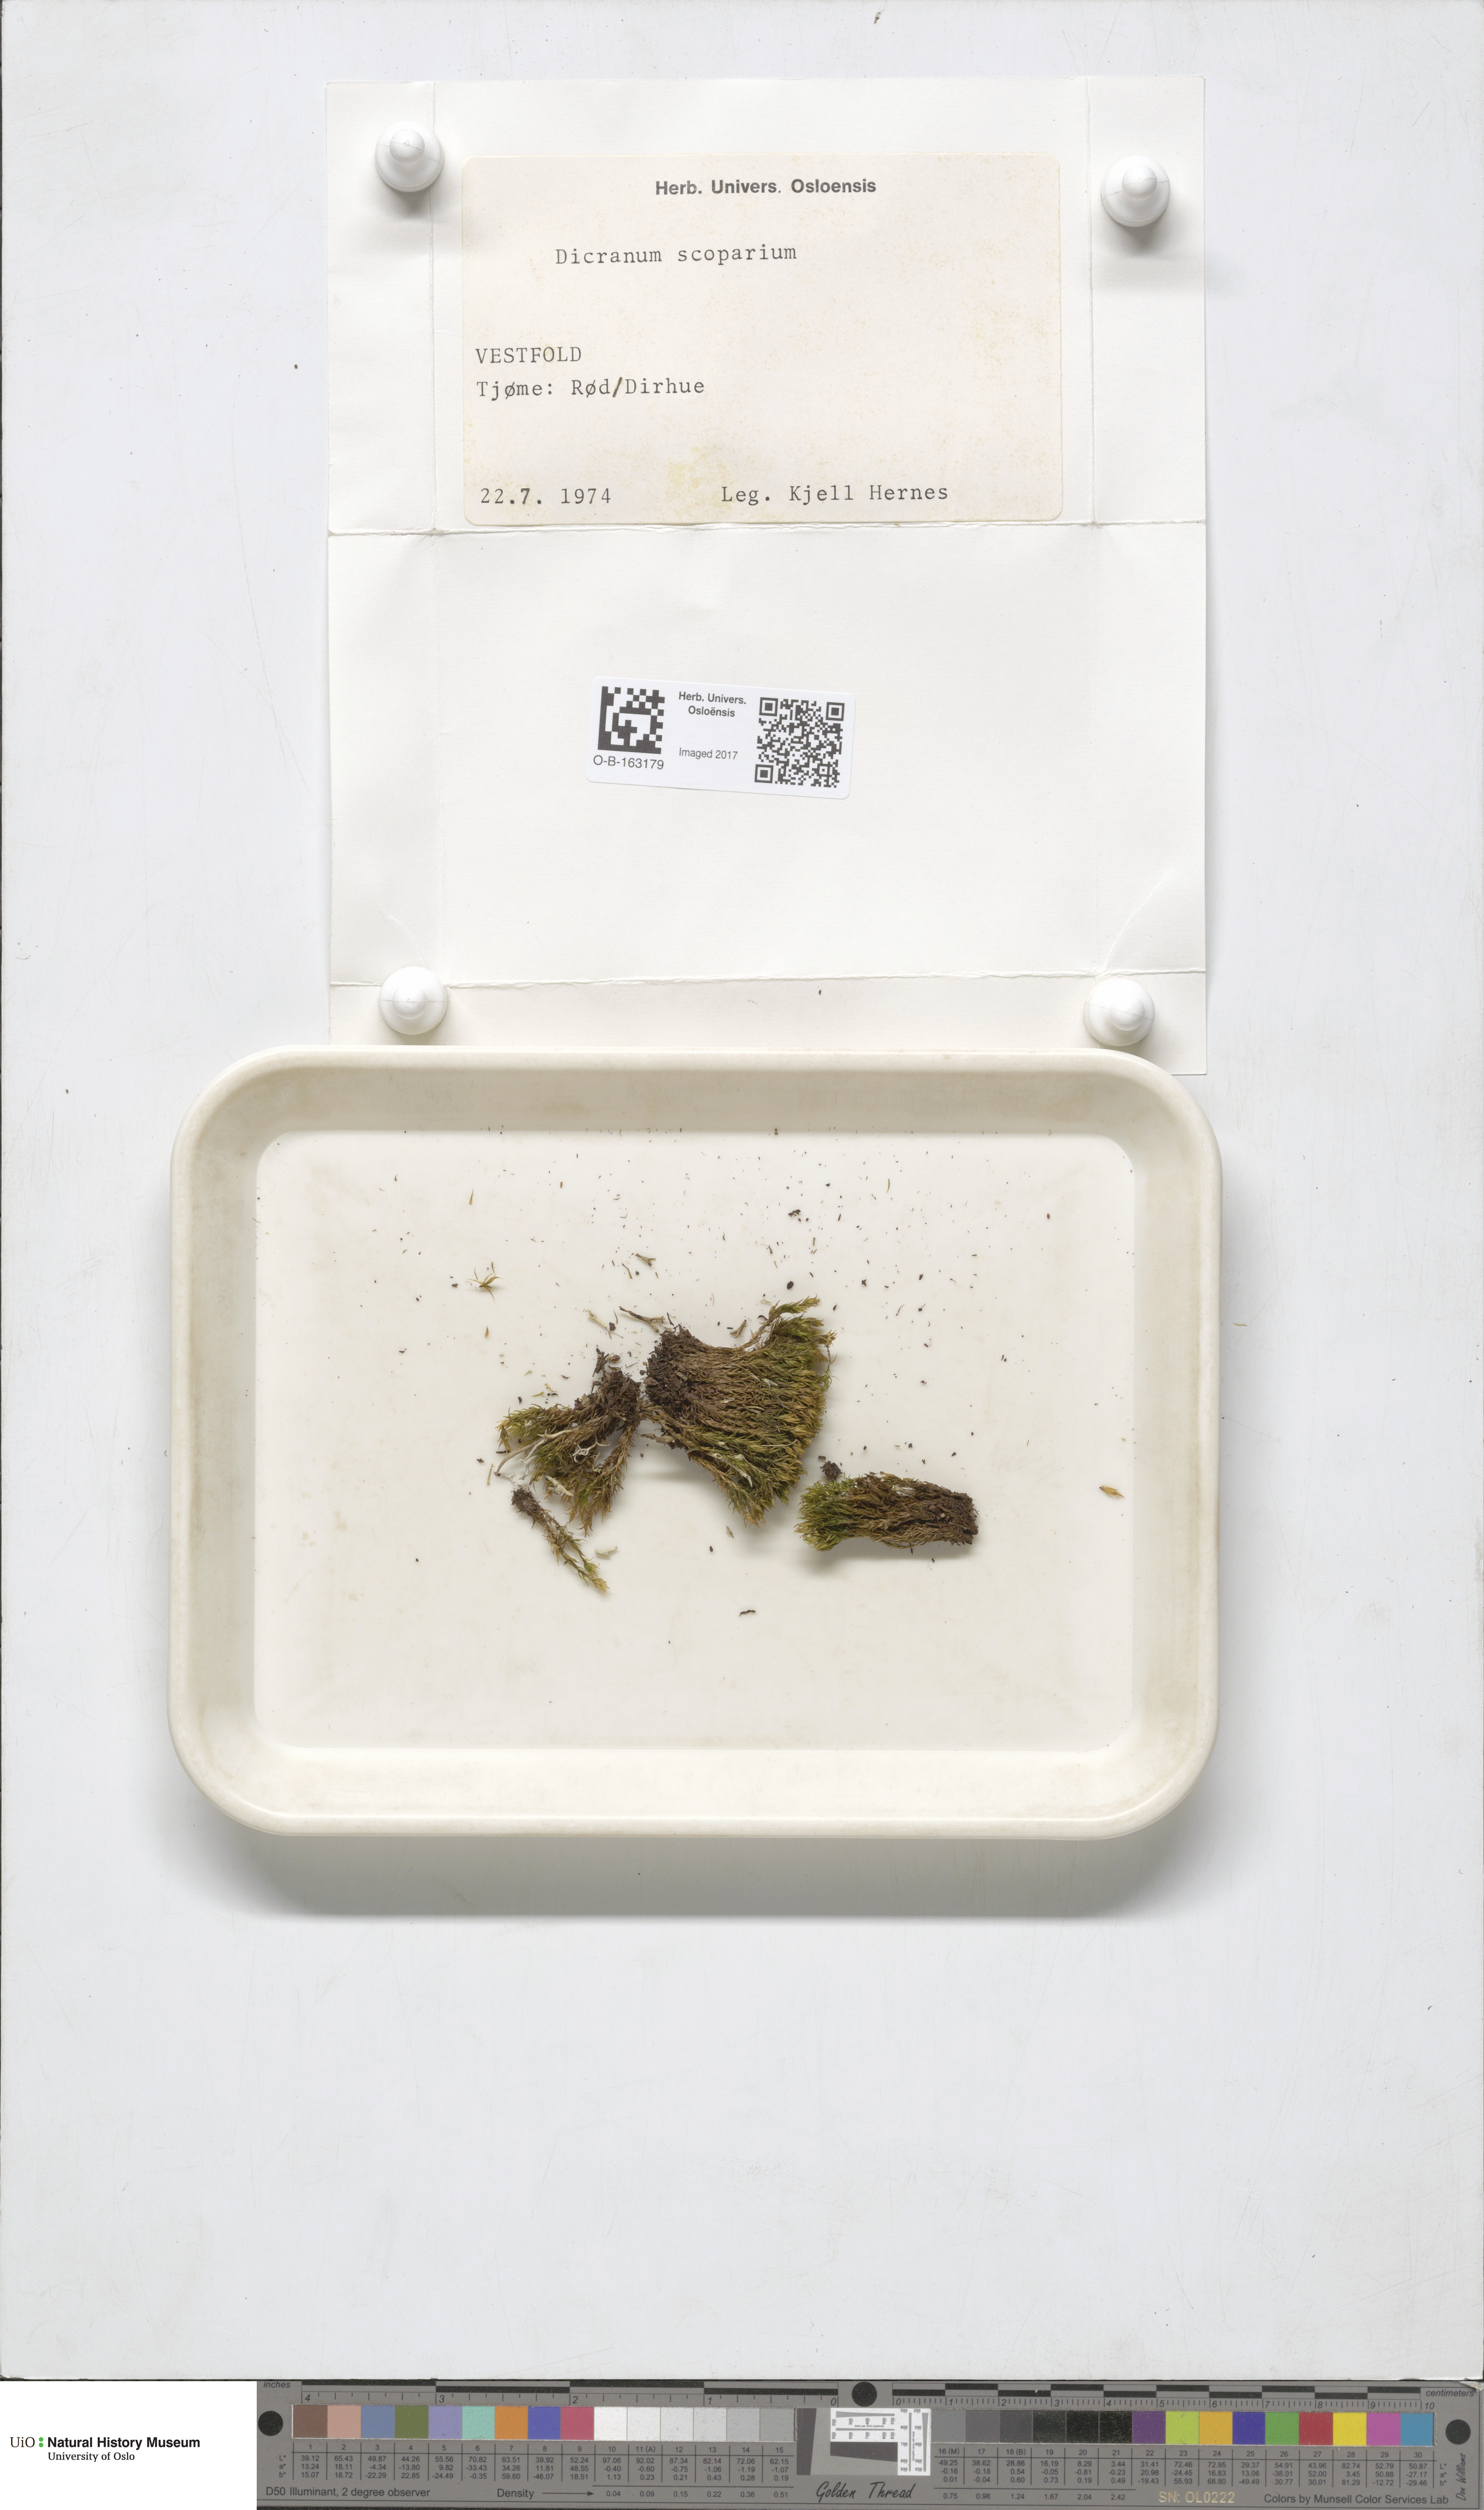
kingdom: Plantae
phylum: Bryophyta
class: Bryopsida
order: Dicranales
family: Dicranaceae
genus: Dicranum
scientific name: Dicranum scoparium
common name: Broom fork-moss
